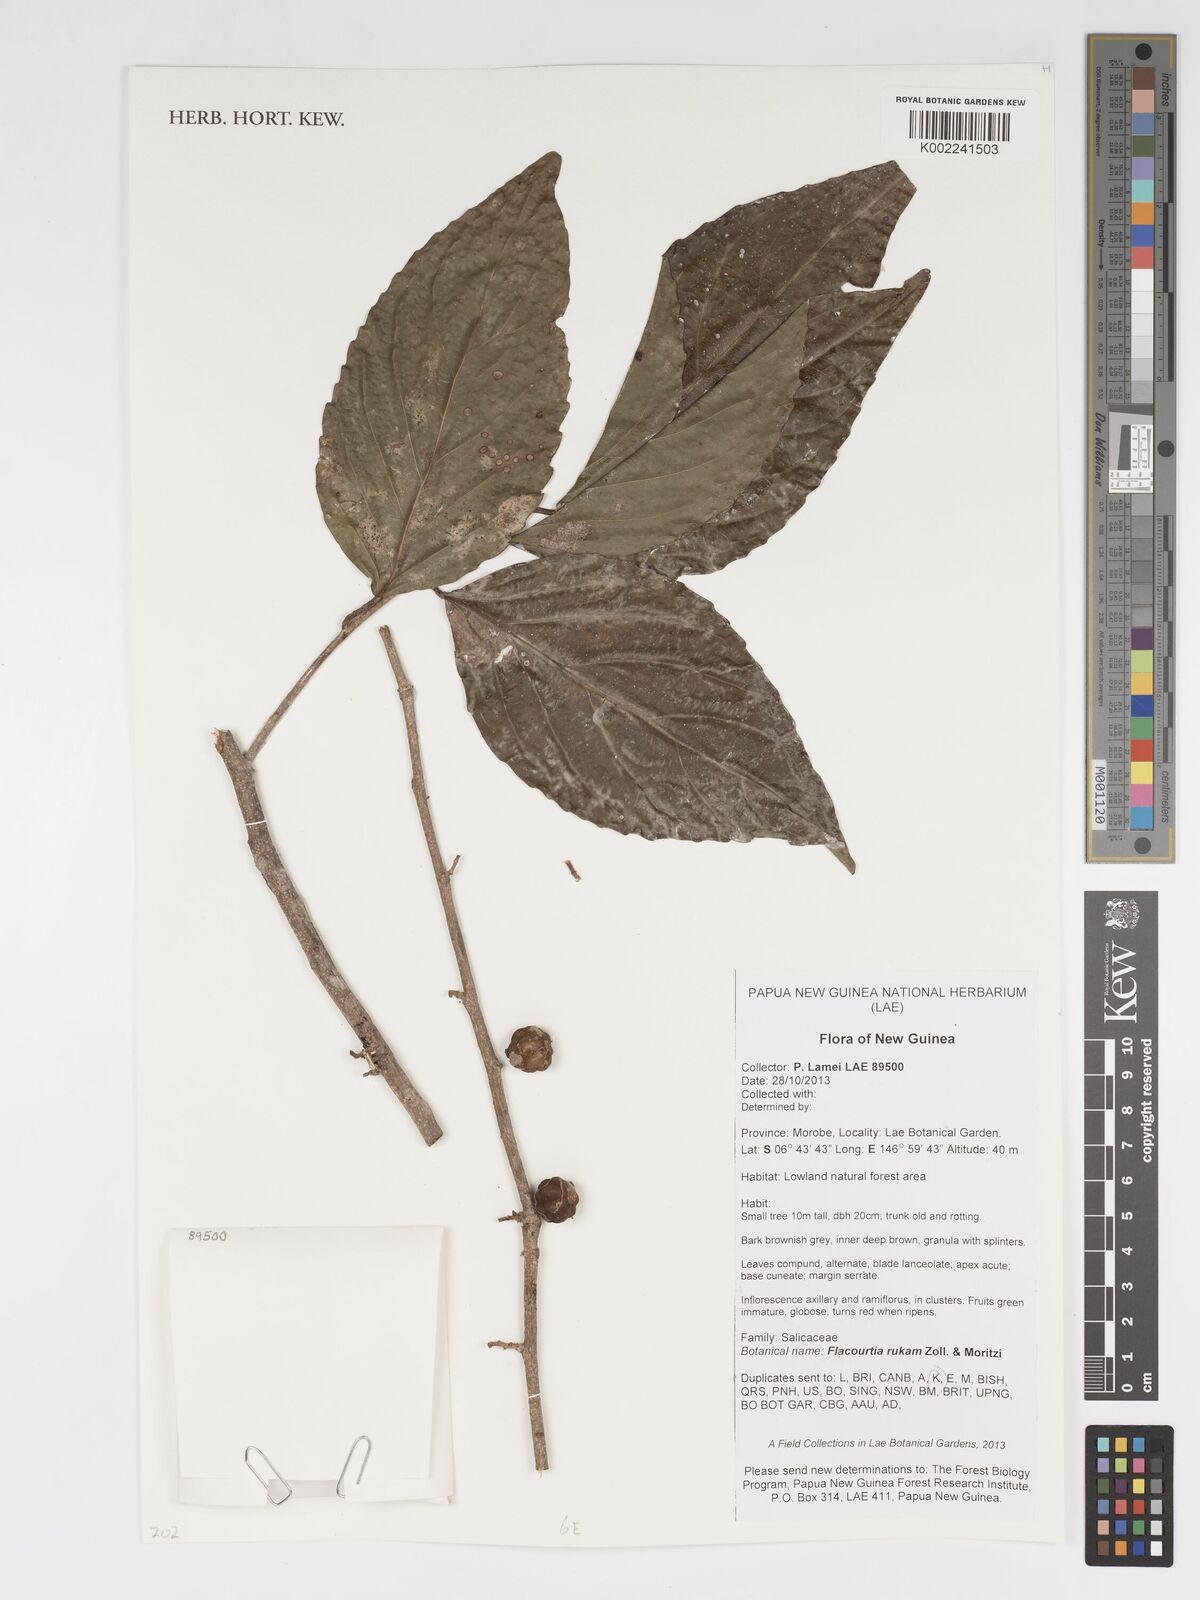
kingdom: Plantae
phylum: Tracheophyta
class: Magnoliopsida
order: Malpighiales
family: Salicaceae
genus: Flacourtia
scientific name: Flacourtia rukam
